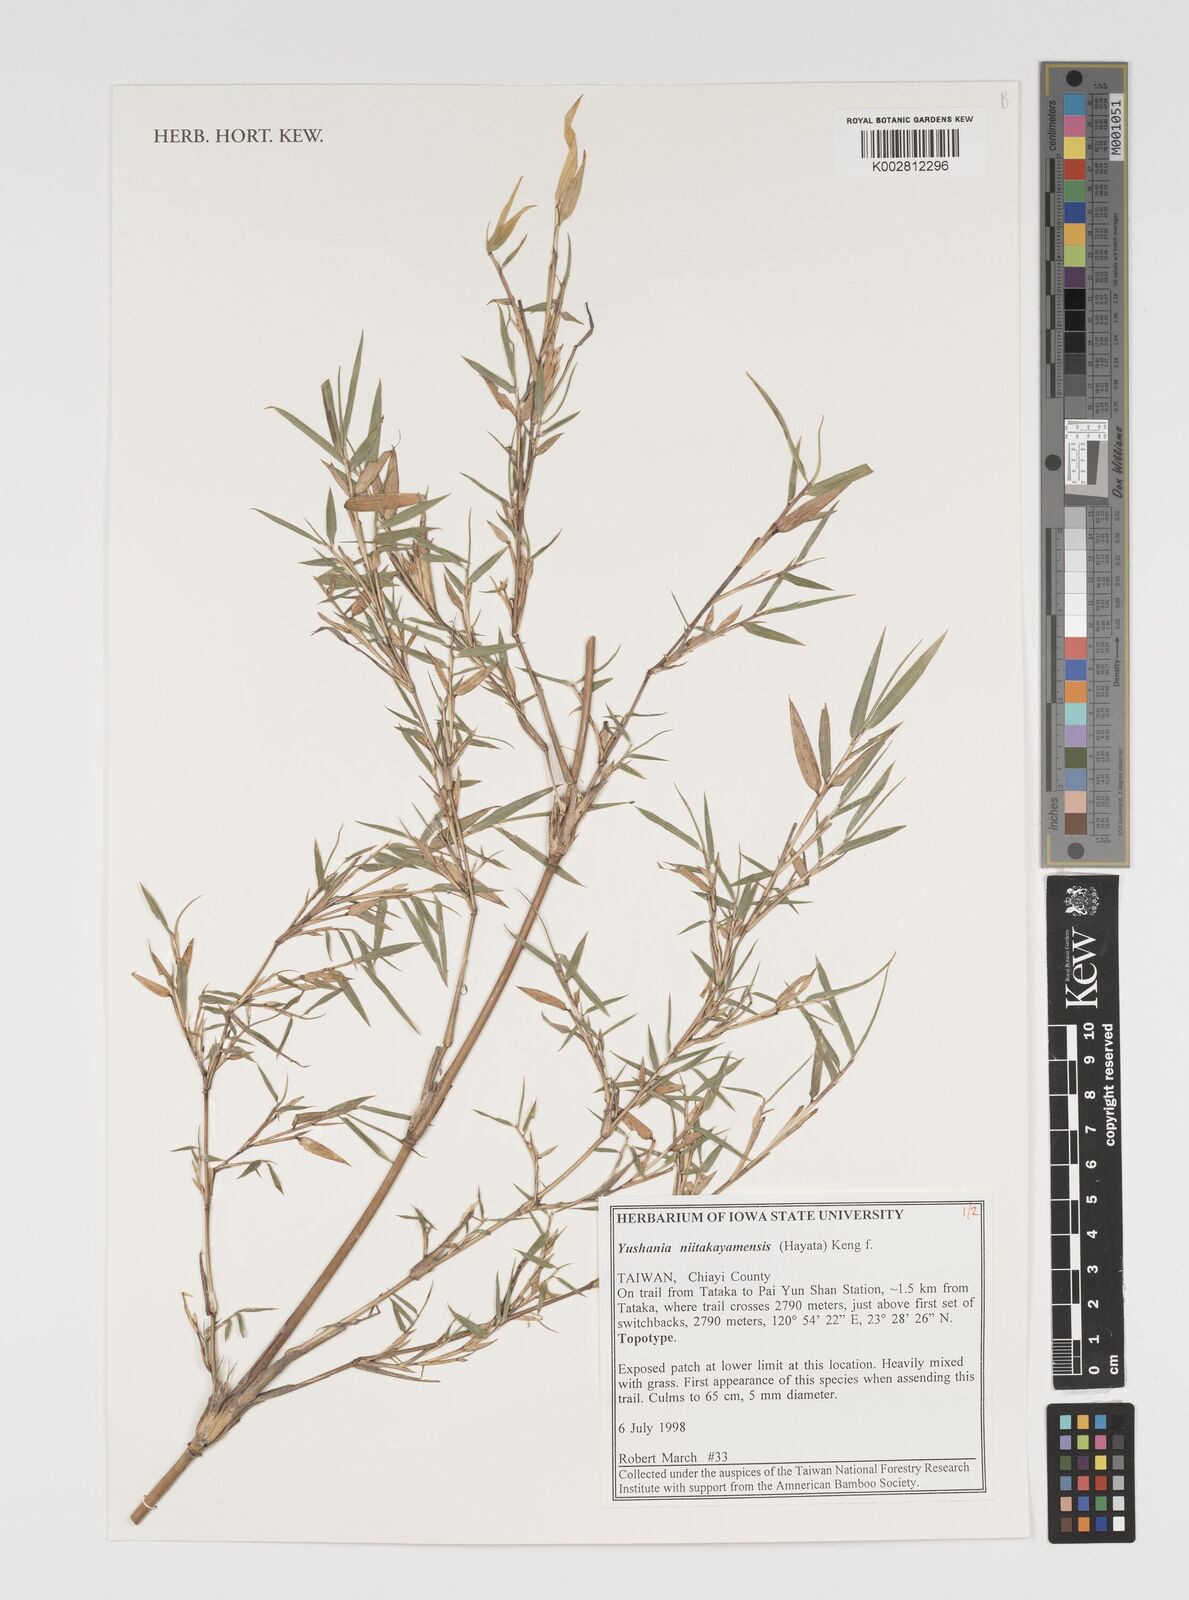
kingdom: Plantae
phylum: Tracheophyta
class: Liliopsida
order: Poales
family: Poaceae
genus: Yushania
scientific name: Yushania niitakayamensis
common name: Yushan cane
